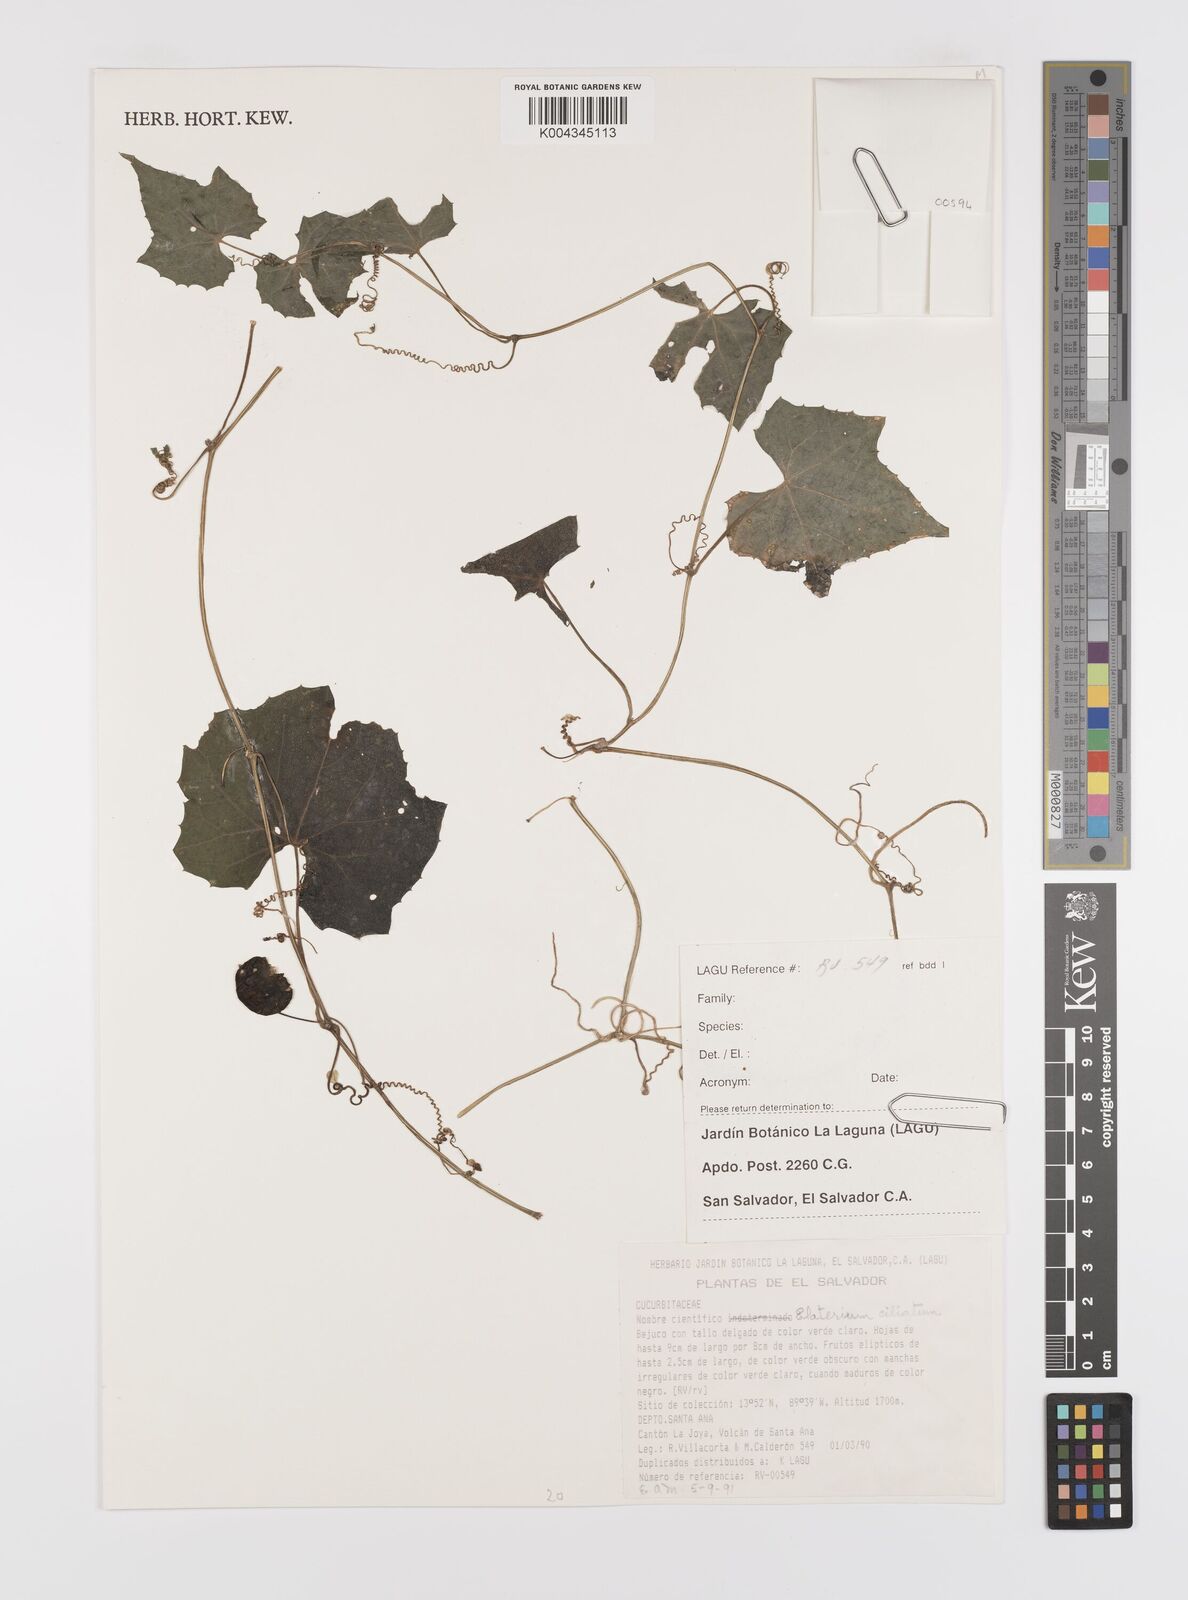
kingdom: Plantae
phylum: Tracheophyta
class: Magnoliopsida
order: Cucurbitales
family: Cucurbitaceae
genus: Ecballium
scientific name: Ecballium
